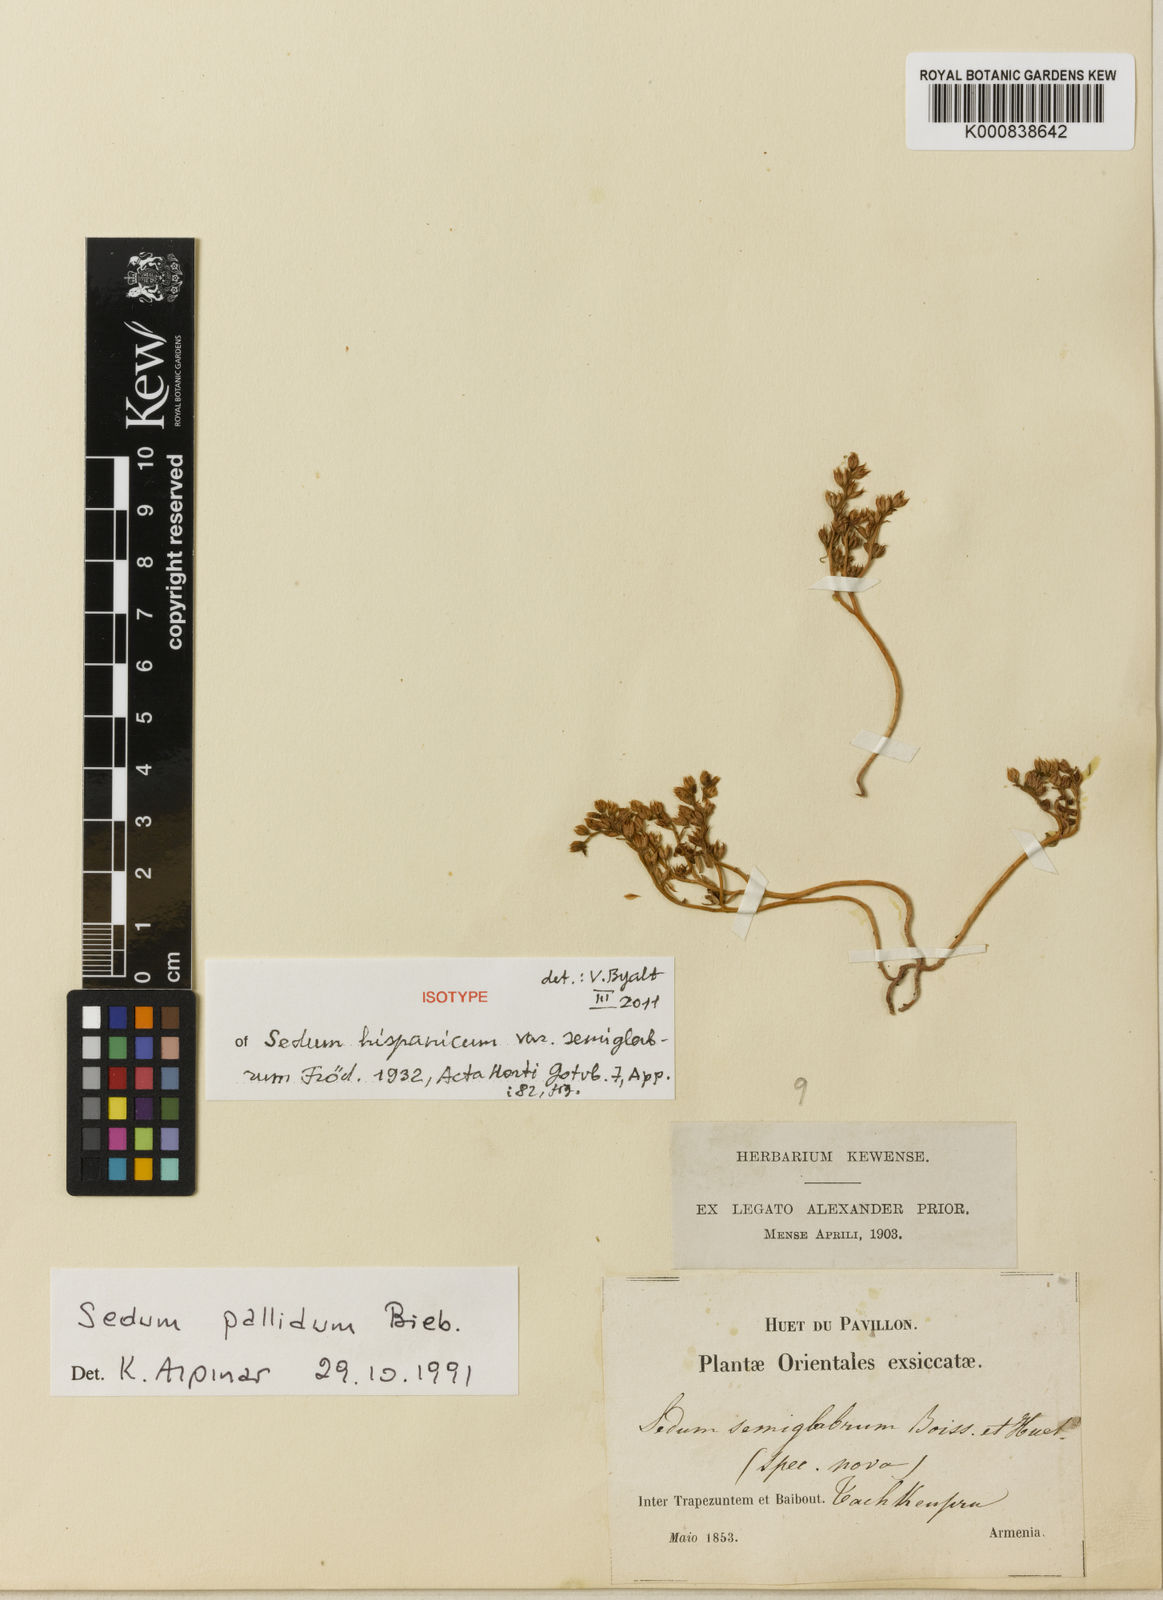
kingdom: Plantae
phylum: Tracheophyta
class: Magnoliopsida
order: Saxifragales
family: Crassulaceae
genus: Sedum
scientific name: Sedum hispanicum
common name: Spanish stonecrop
